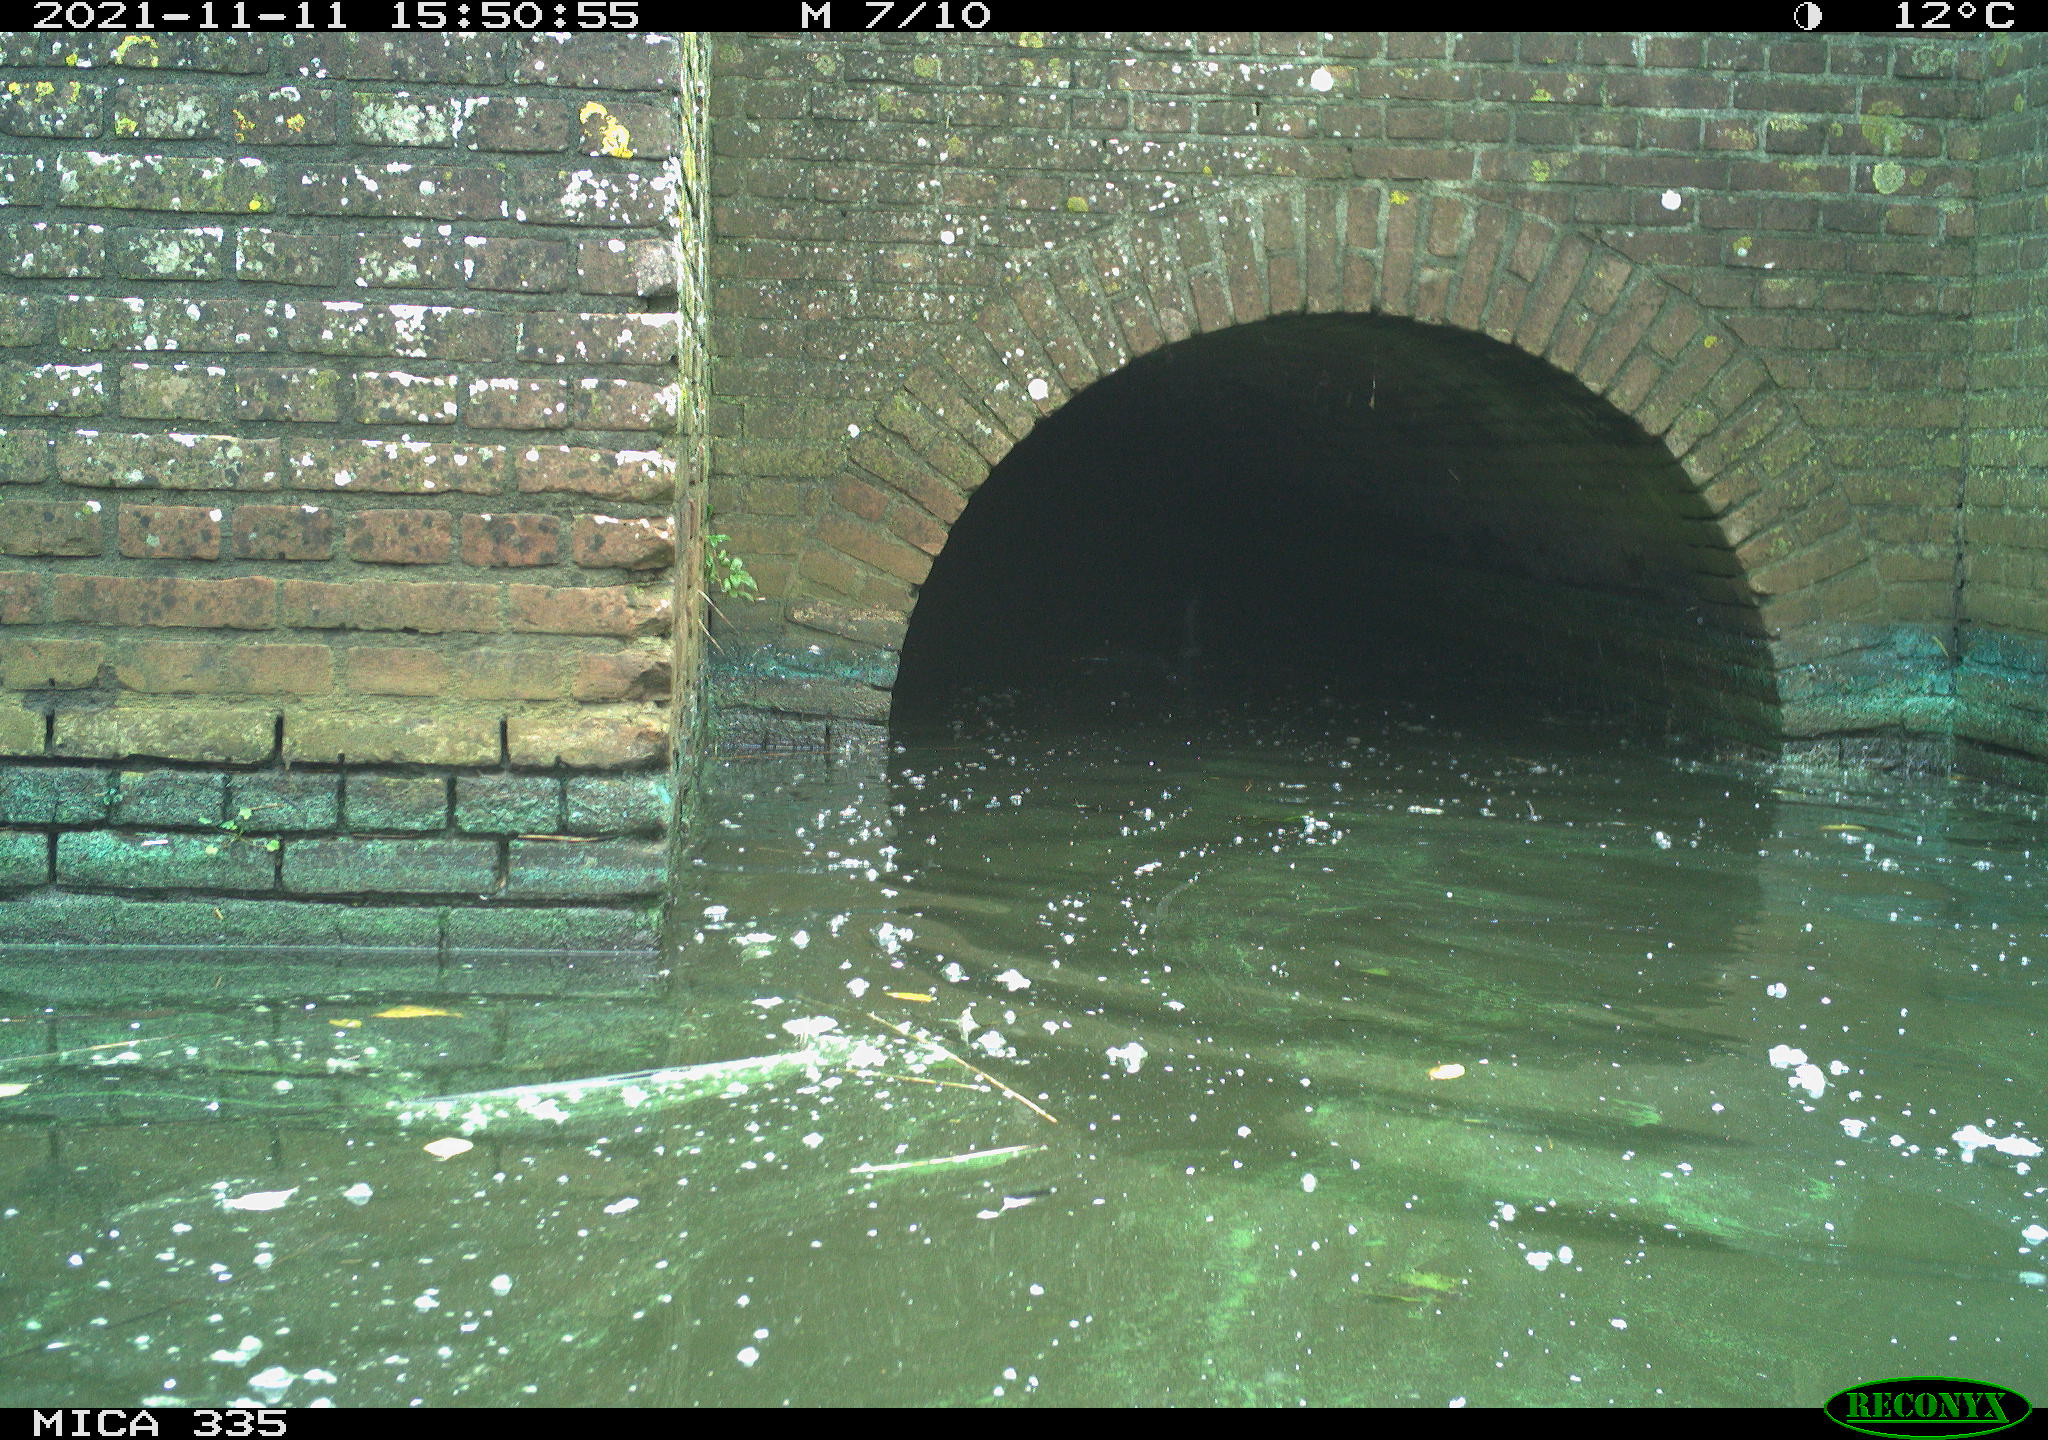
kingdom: Animalia
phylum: Chordata
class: Aves
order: Suliformes
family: Phalacrocoracidae
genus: Phalacrocorax
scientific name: Phalacrocorax carbo
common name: Great cormorant
